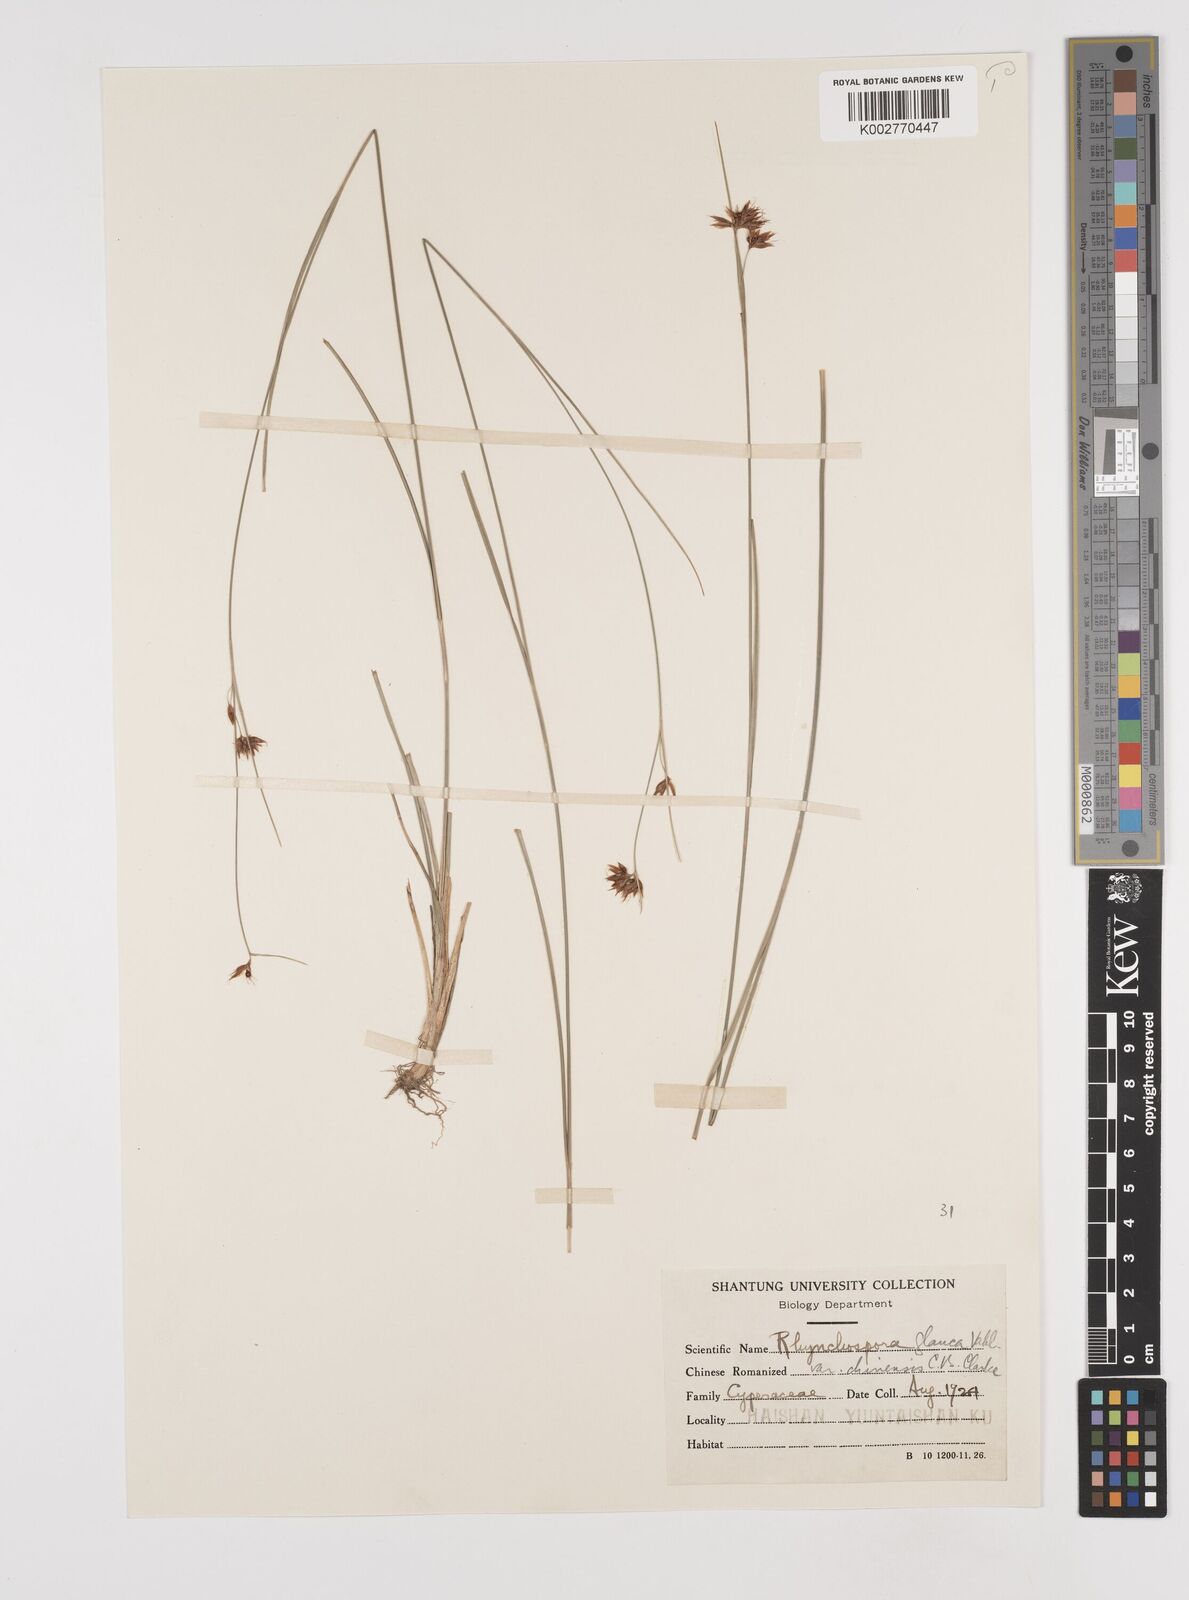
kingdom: Plantae
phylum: Tracheophyta
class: Liliopsida
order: Poales
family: Cyperaceae
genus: Rhynchospora
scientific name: Rhynchospora
